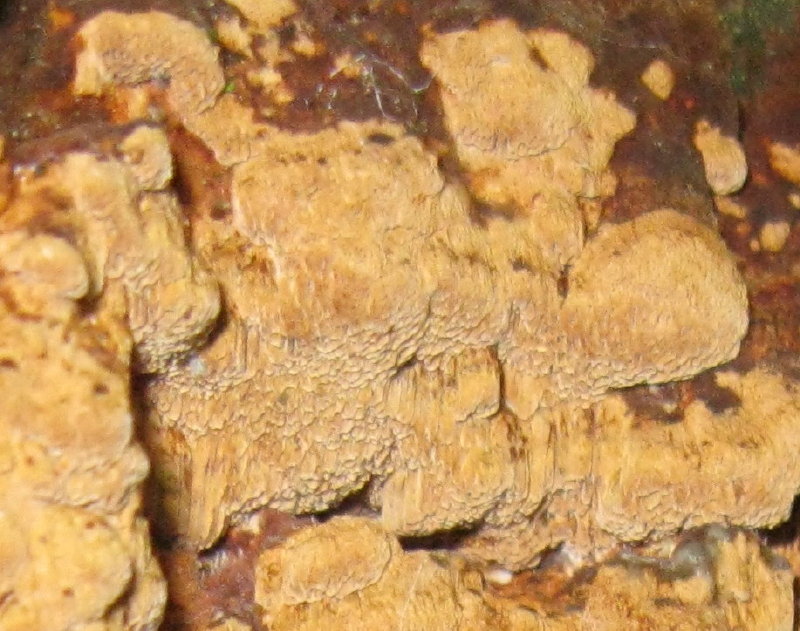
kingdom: Fungi
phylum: Basidiomycota
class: Agaricomycetes
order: Hymenochaetales
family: Hymenochaetaceae
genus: Fuscoporia
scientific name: Fuscoporia ferrea
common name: skorpe-ildporesvamp
